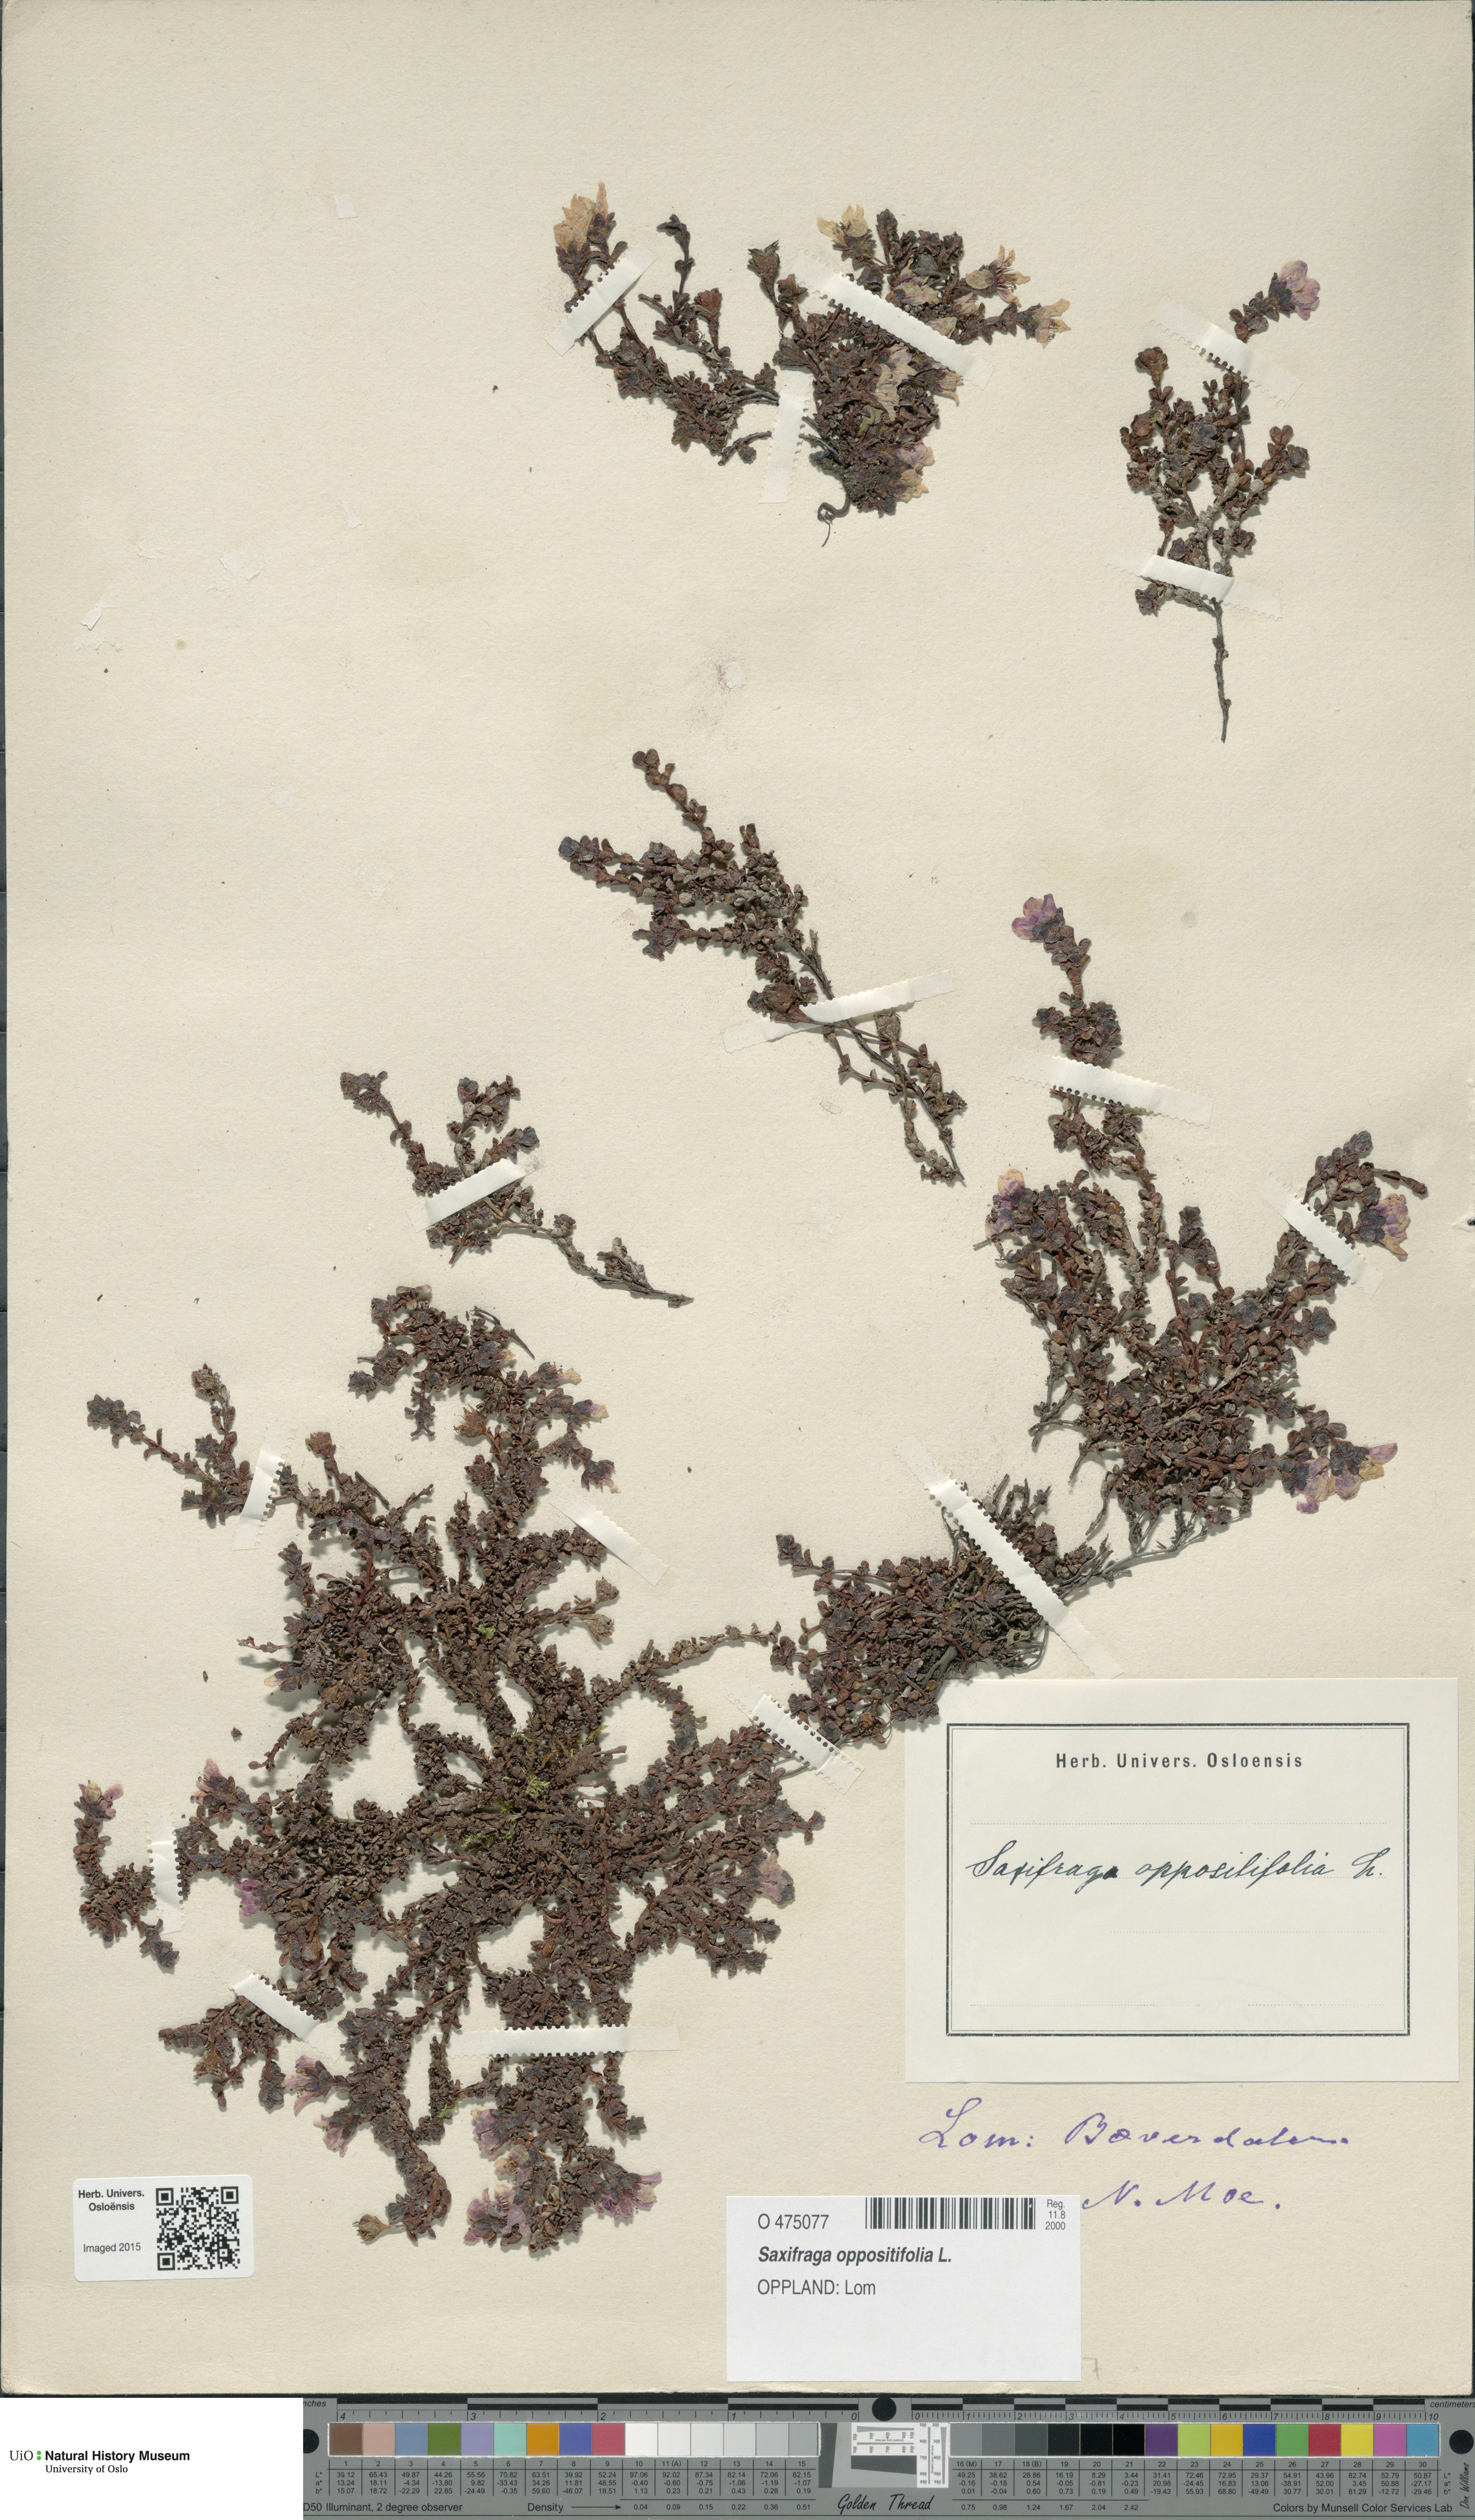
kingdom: Plantae
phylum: Tracheophyta
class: Magnoliopsida
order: Saxifragales
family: Saxifragaceae
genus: Saxifraga
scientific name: Saxifraga oppositifolia
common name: Purple saxifrage
